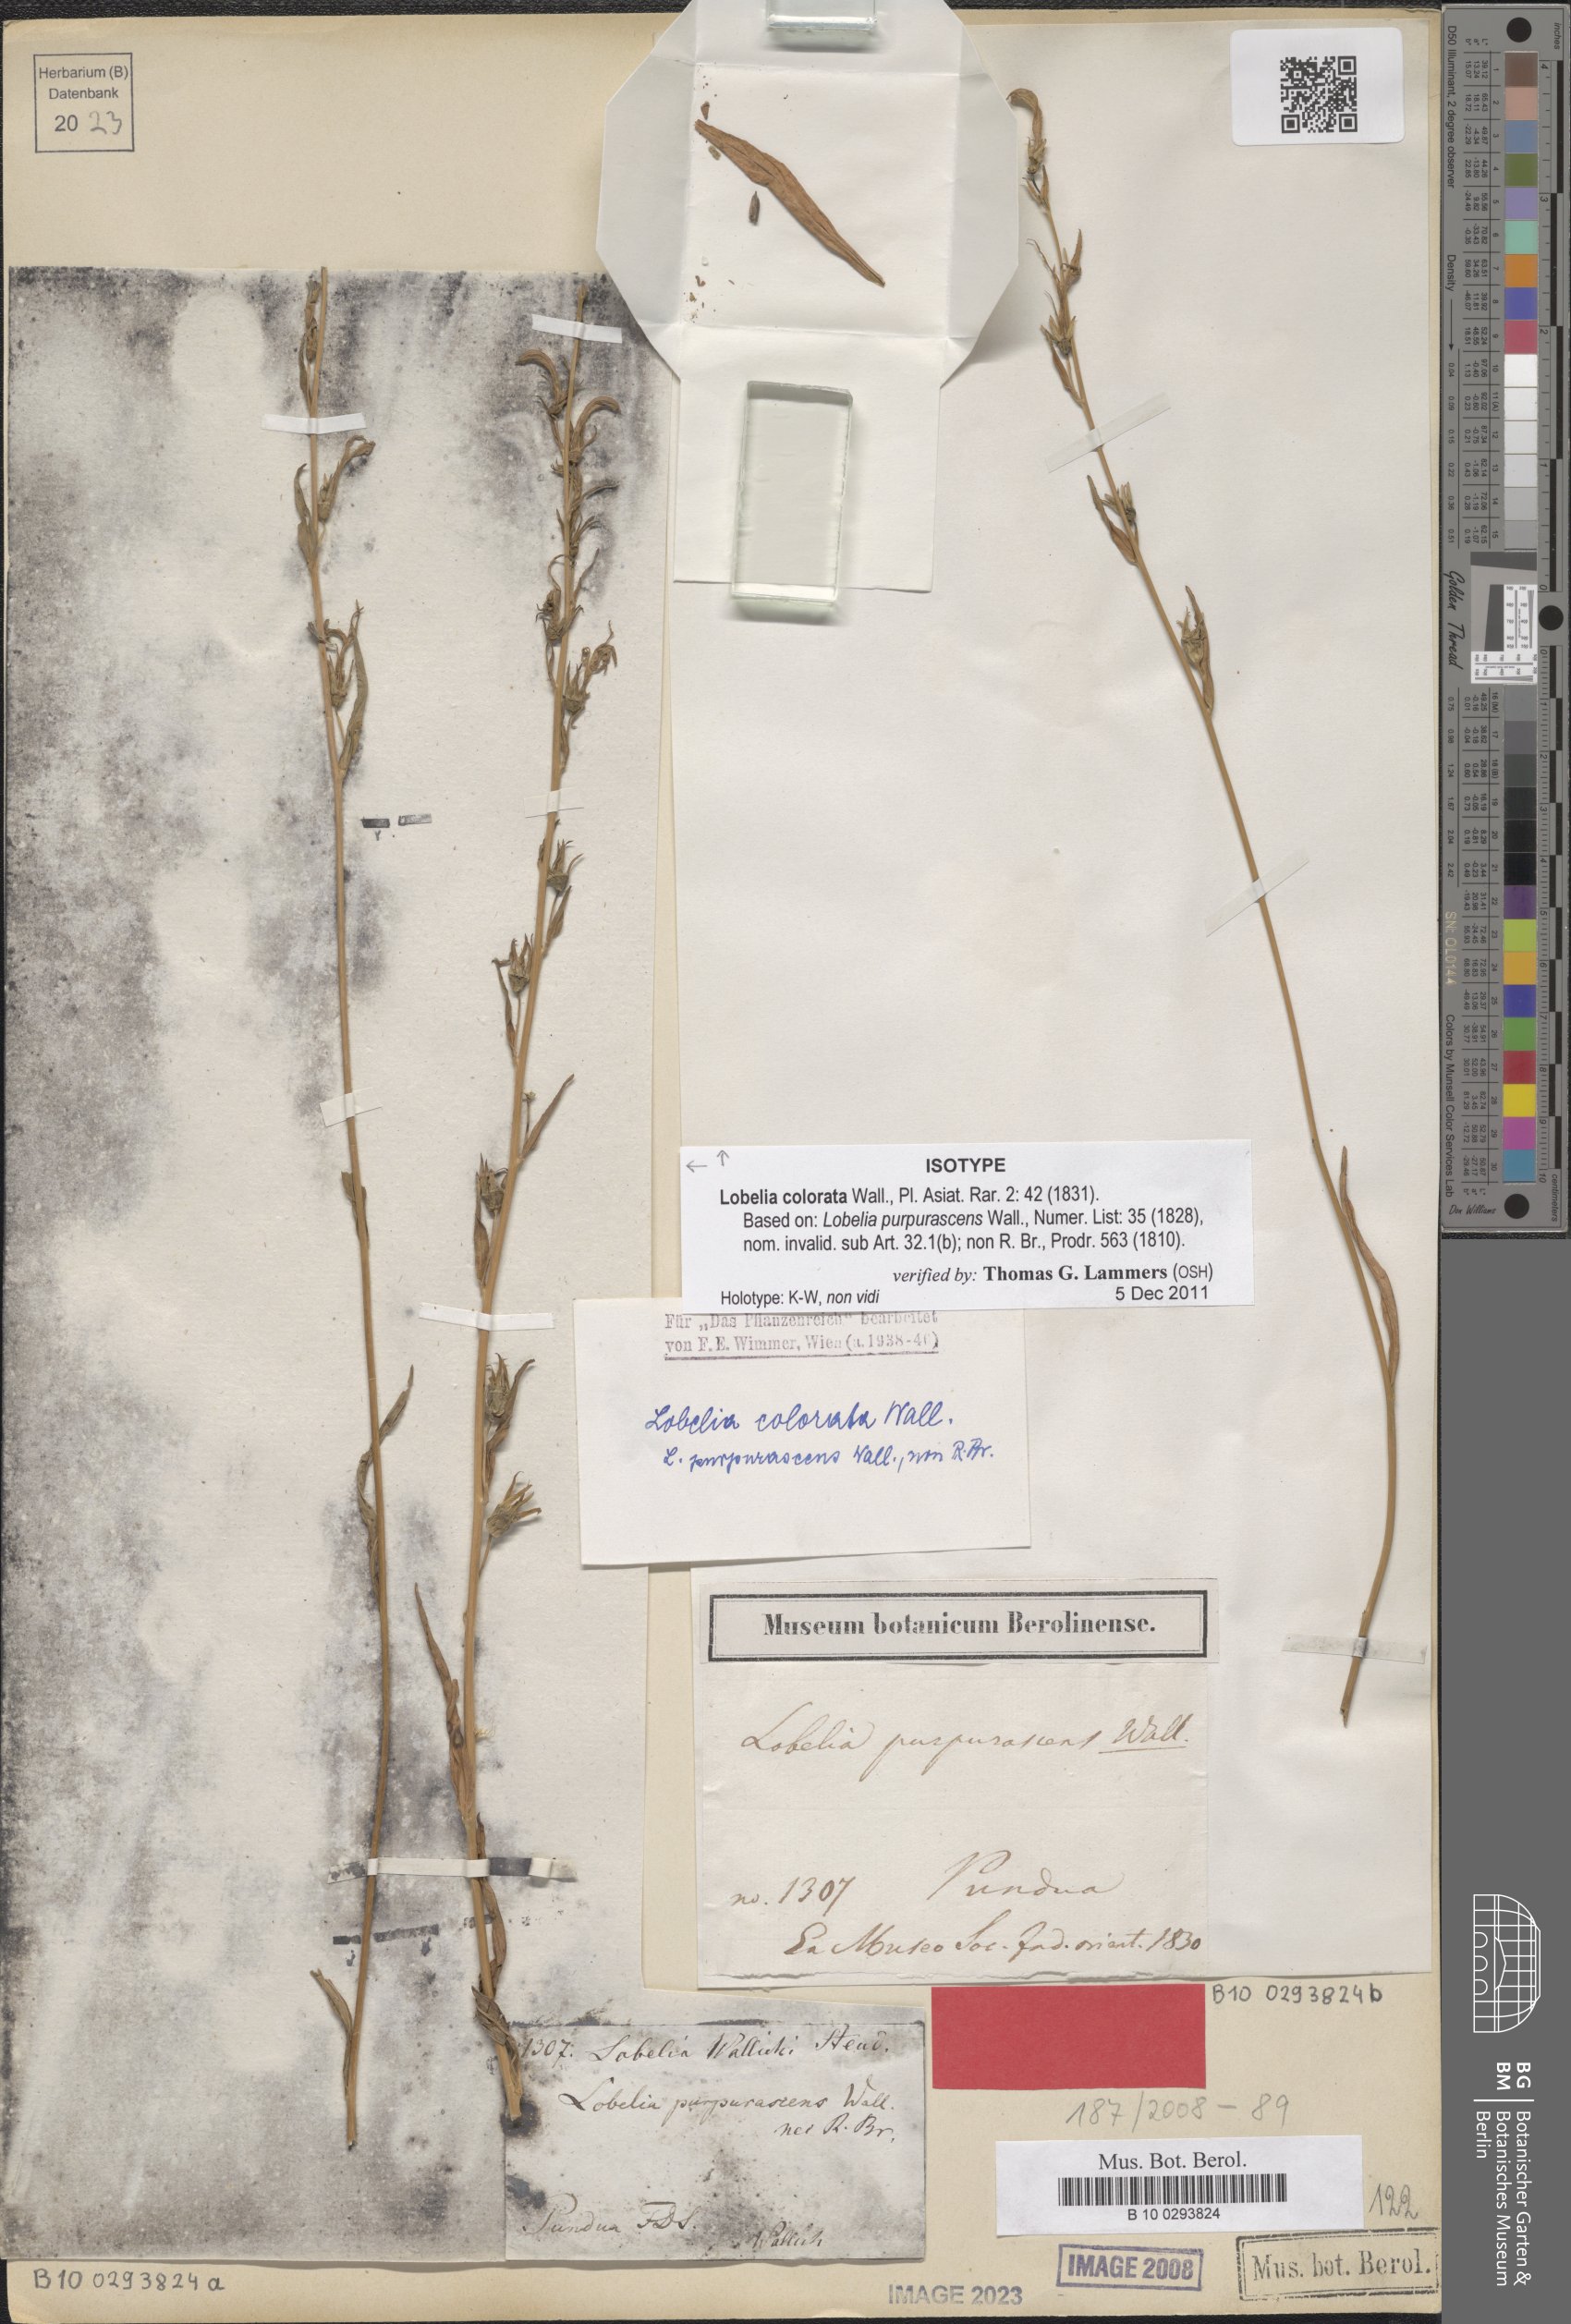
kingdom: Plantae
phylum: Tracheophyta
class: Magnoliopsida
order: Asterales
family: Campanulaceae
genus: Lobelia
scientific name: Lobelia nicotianifolia
